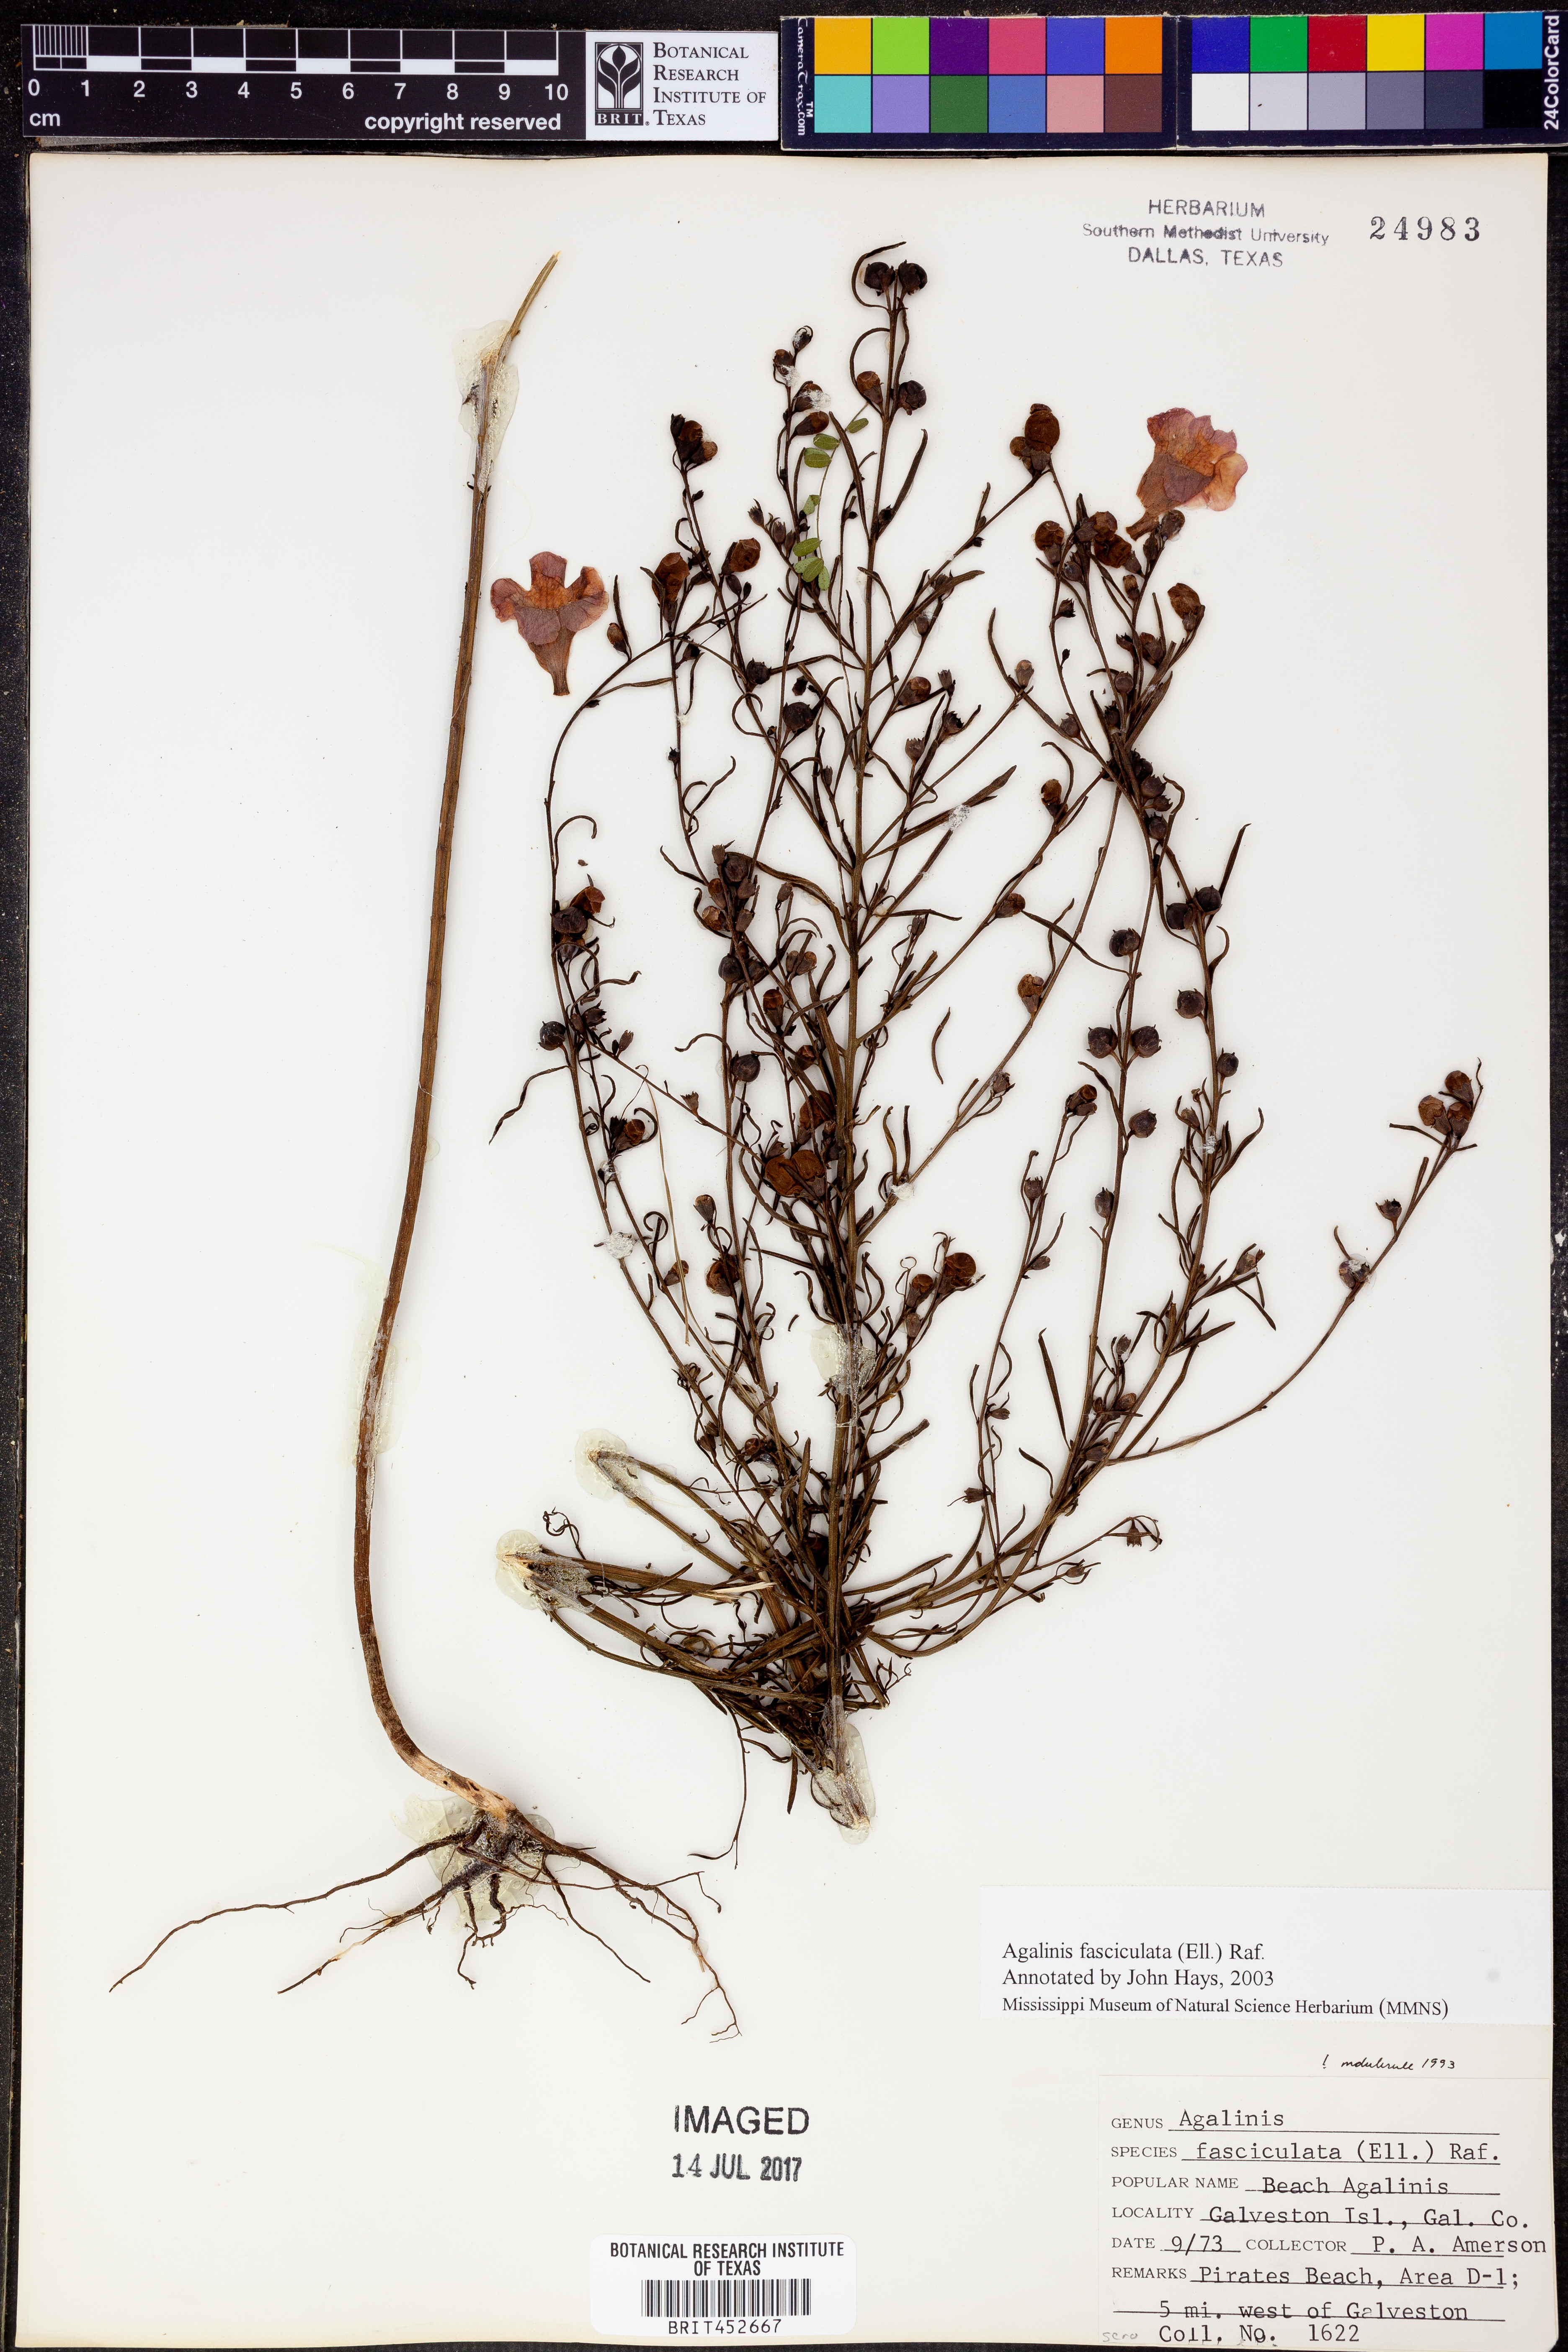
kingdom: Plantae
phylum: Tracheophyta
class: Magnoliopsida
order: Lamiales
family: Orobanchaceae
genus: Agalinis
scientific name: Agalinis fasciculata
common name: Beach false foxglove
